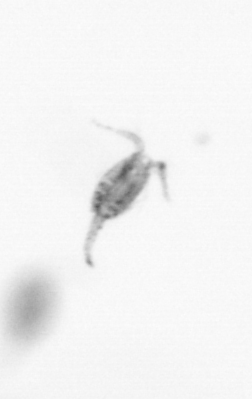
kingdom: Animalia
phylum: Arthropoda
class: Copepoda
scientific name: Copepoda
